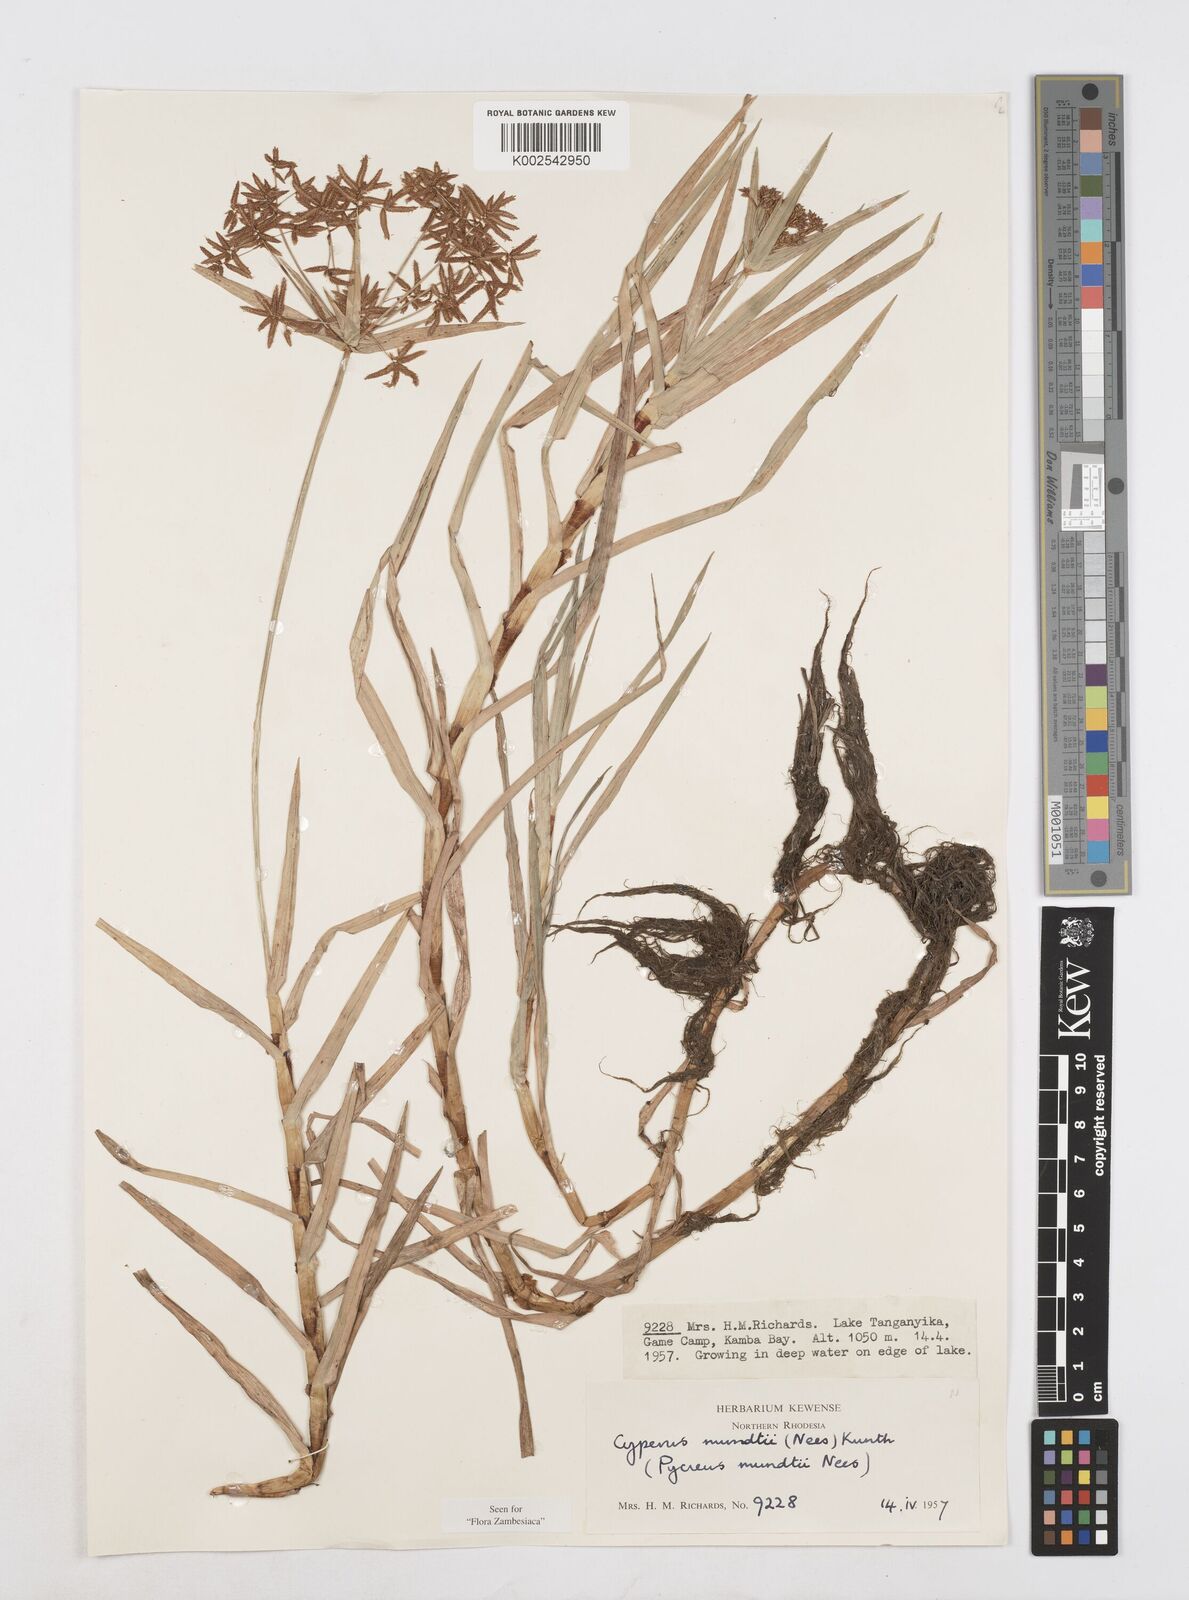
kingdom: Plantae
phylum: Tracheophyta
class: Liliopsida
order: Poales
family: Cyperaceae
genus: Cyperus
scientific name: Cyperus mundii
